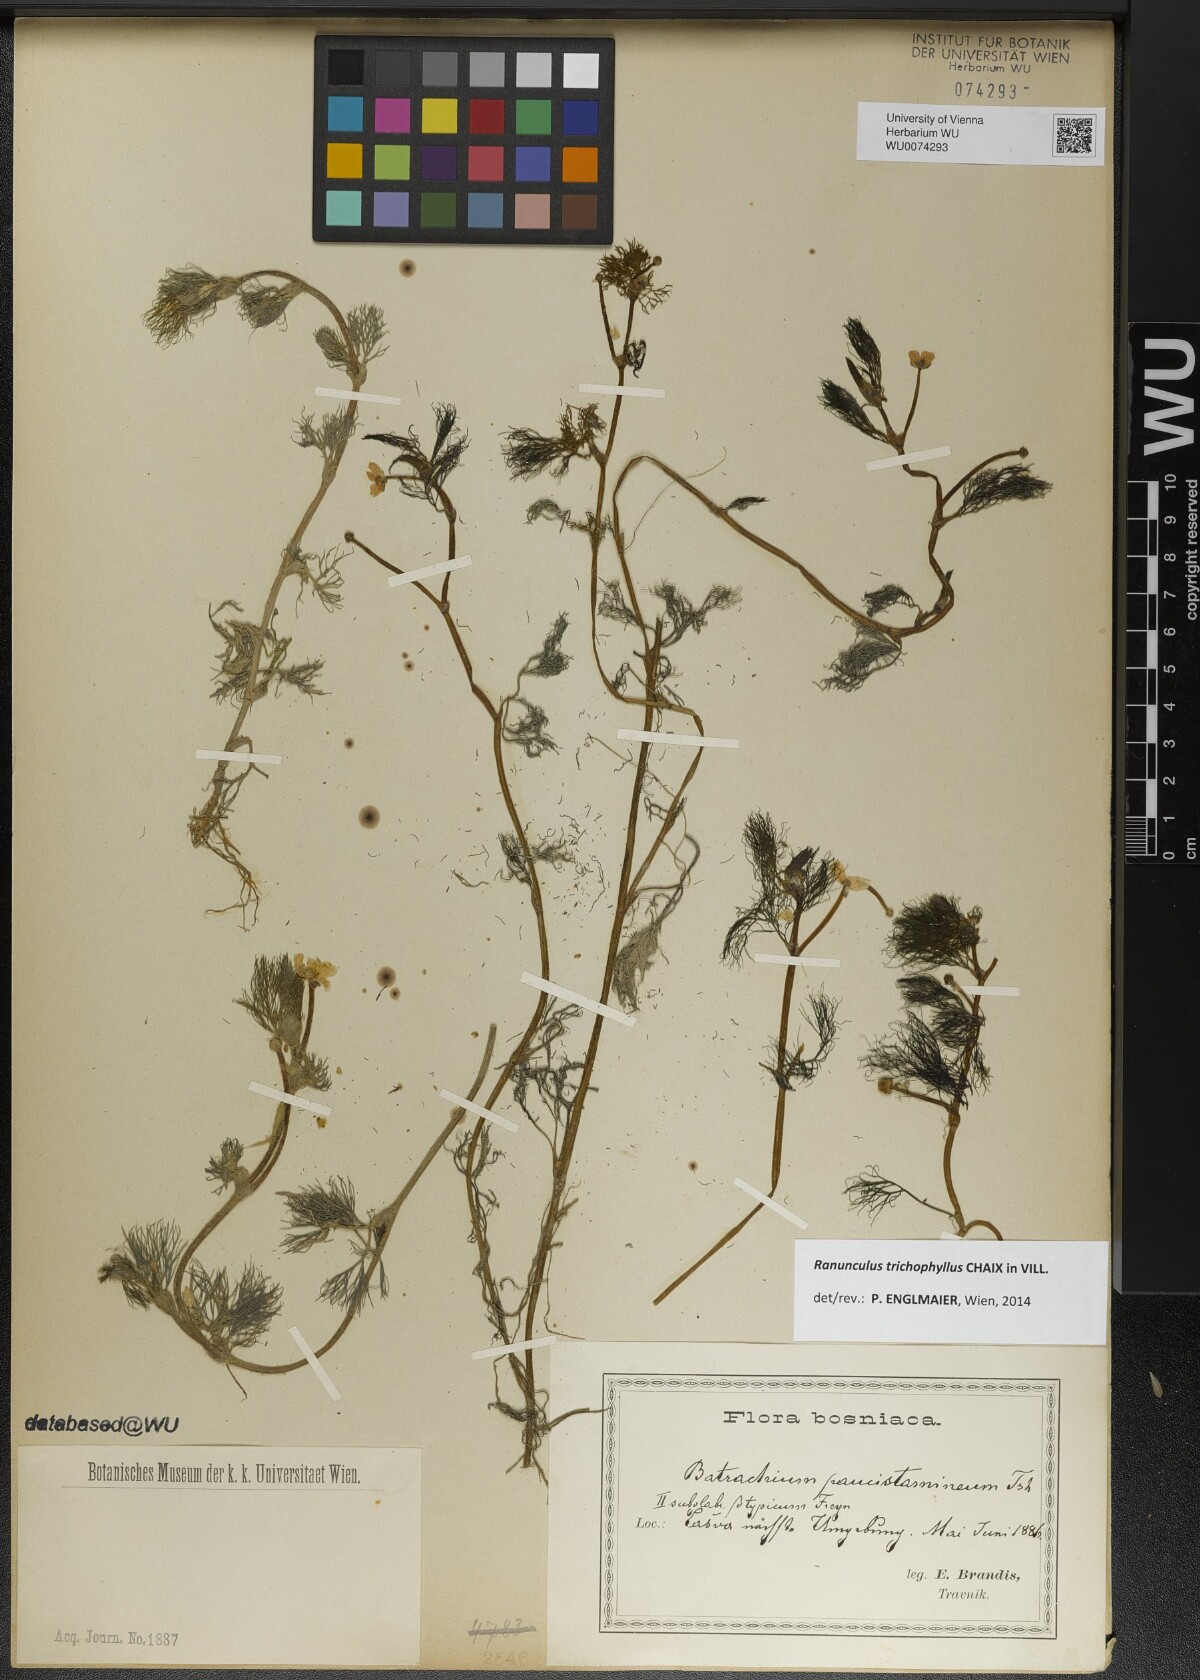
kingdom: Plantae
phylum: Tracheophyta
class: Magnoliopsida
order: Ranunculales
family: Ranunculaceae
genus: Ranunculus
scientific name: Ranunculus trichophyllus
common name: Thread-leaved water-crowfoot
